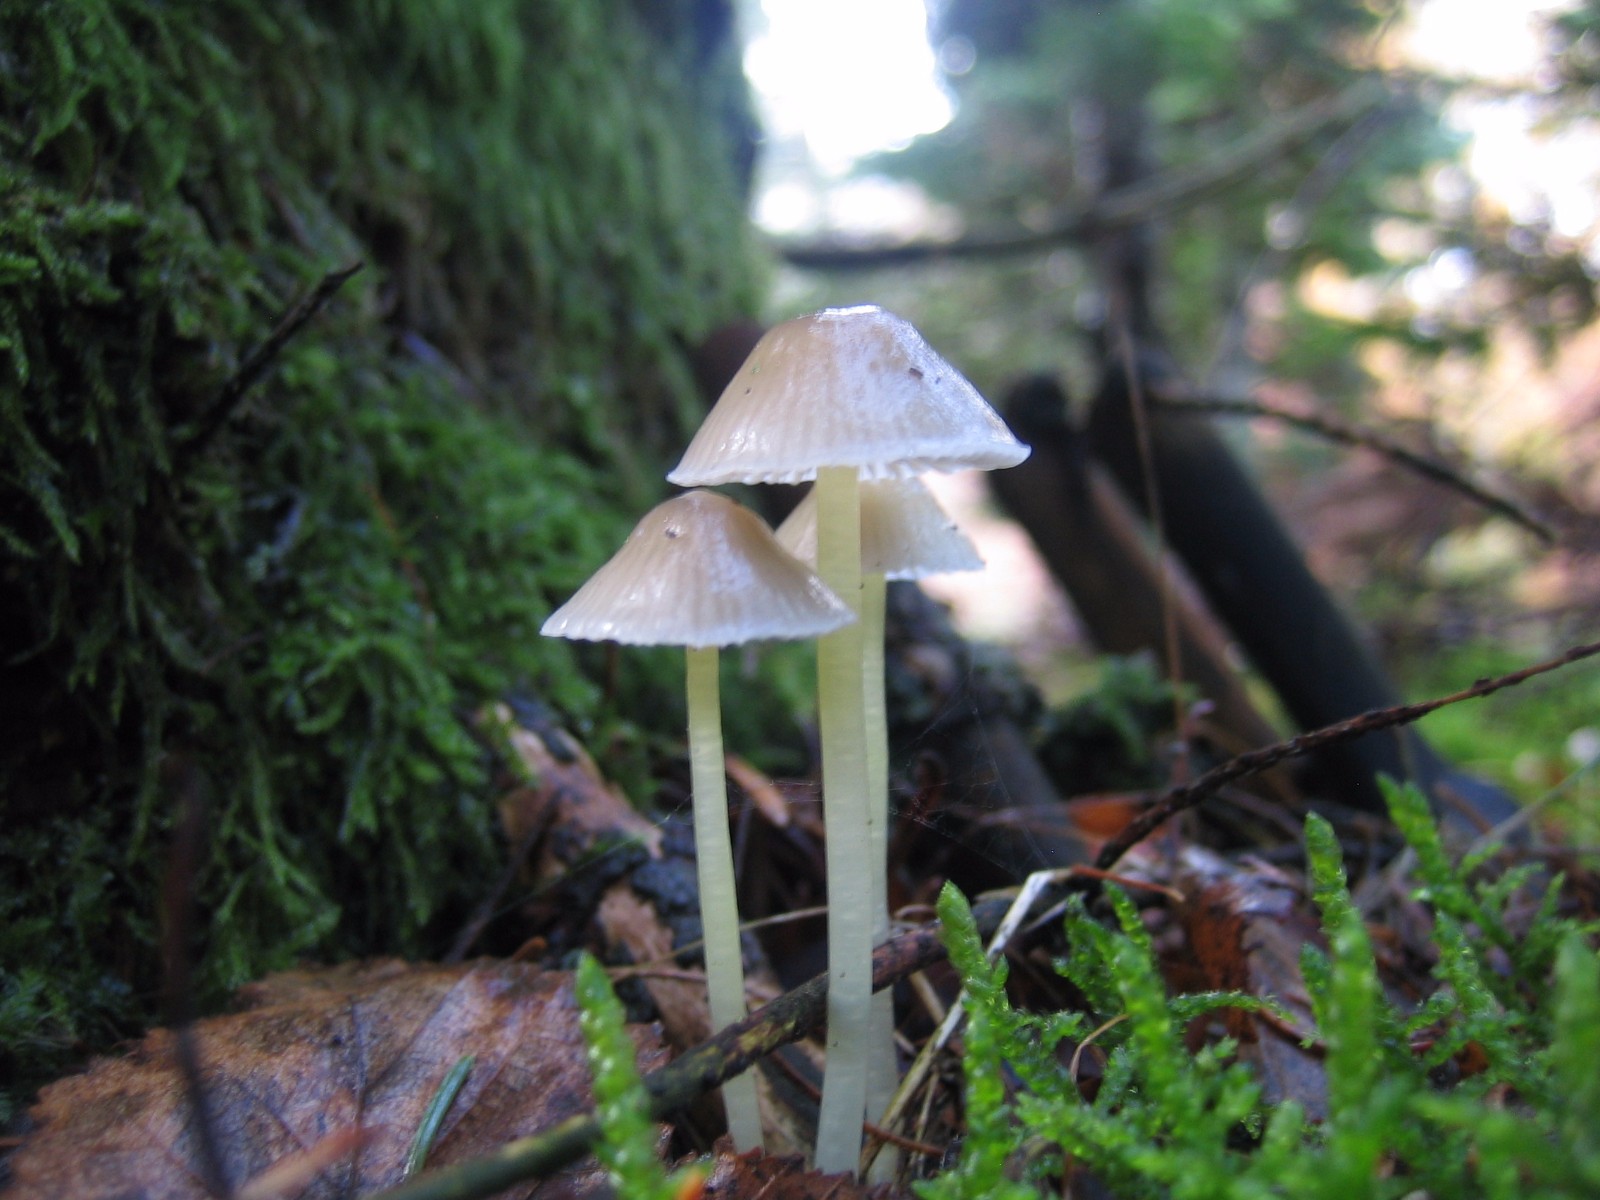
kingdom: Fungi
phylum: Basidiomycota
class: Agaricomycetes
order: Agaricales
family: Mycenaceae
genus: Mycena
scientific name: Mycena epipterygia
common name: gulstokket huesvamp
